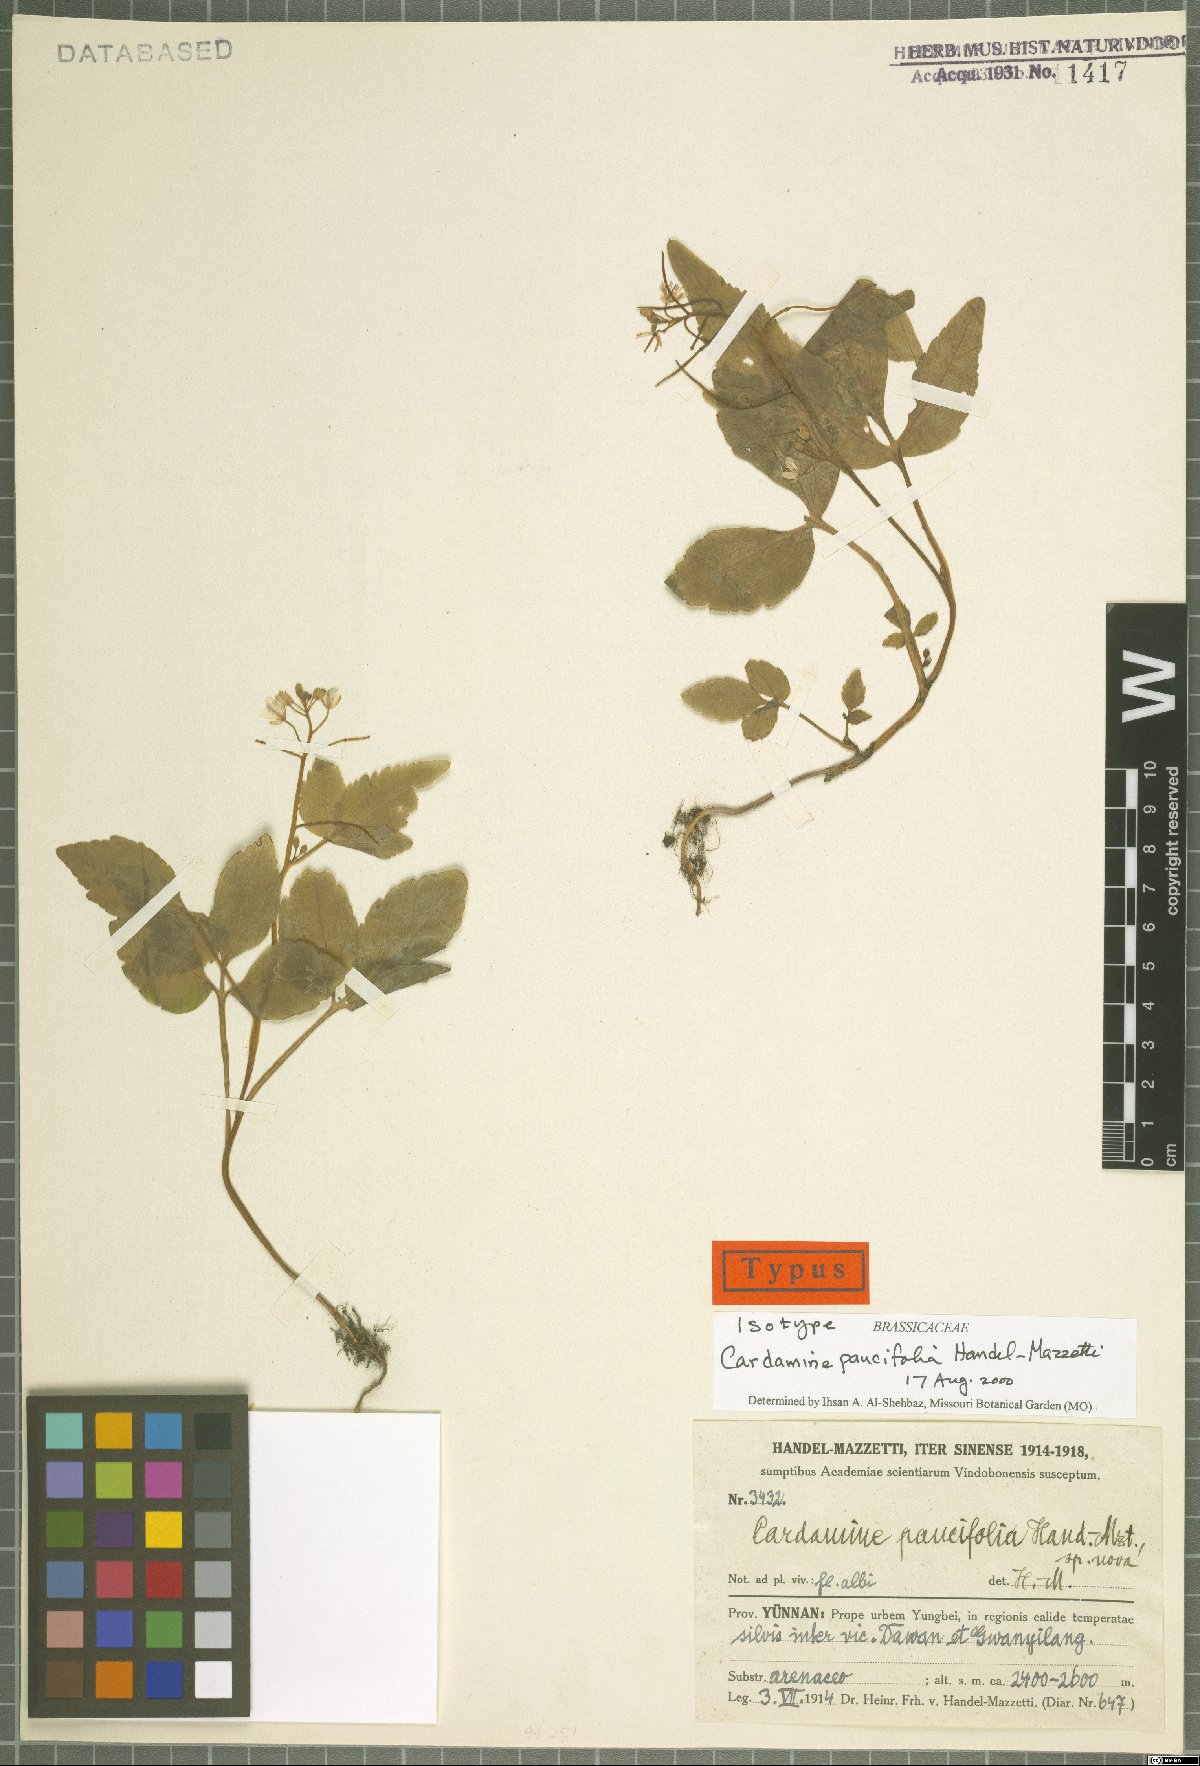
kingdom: Plantae
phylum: Tracheophyta
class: Magnoliopsida
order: Brassicales
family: Brassicaceae
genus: Cardamine
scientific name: Cardamine paucifolia
